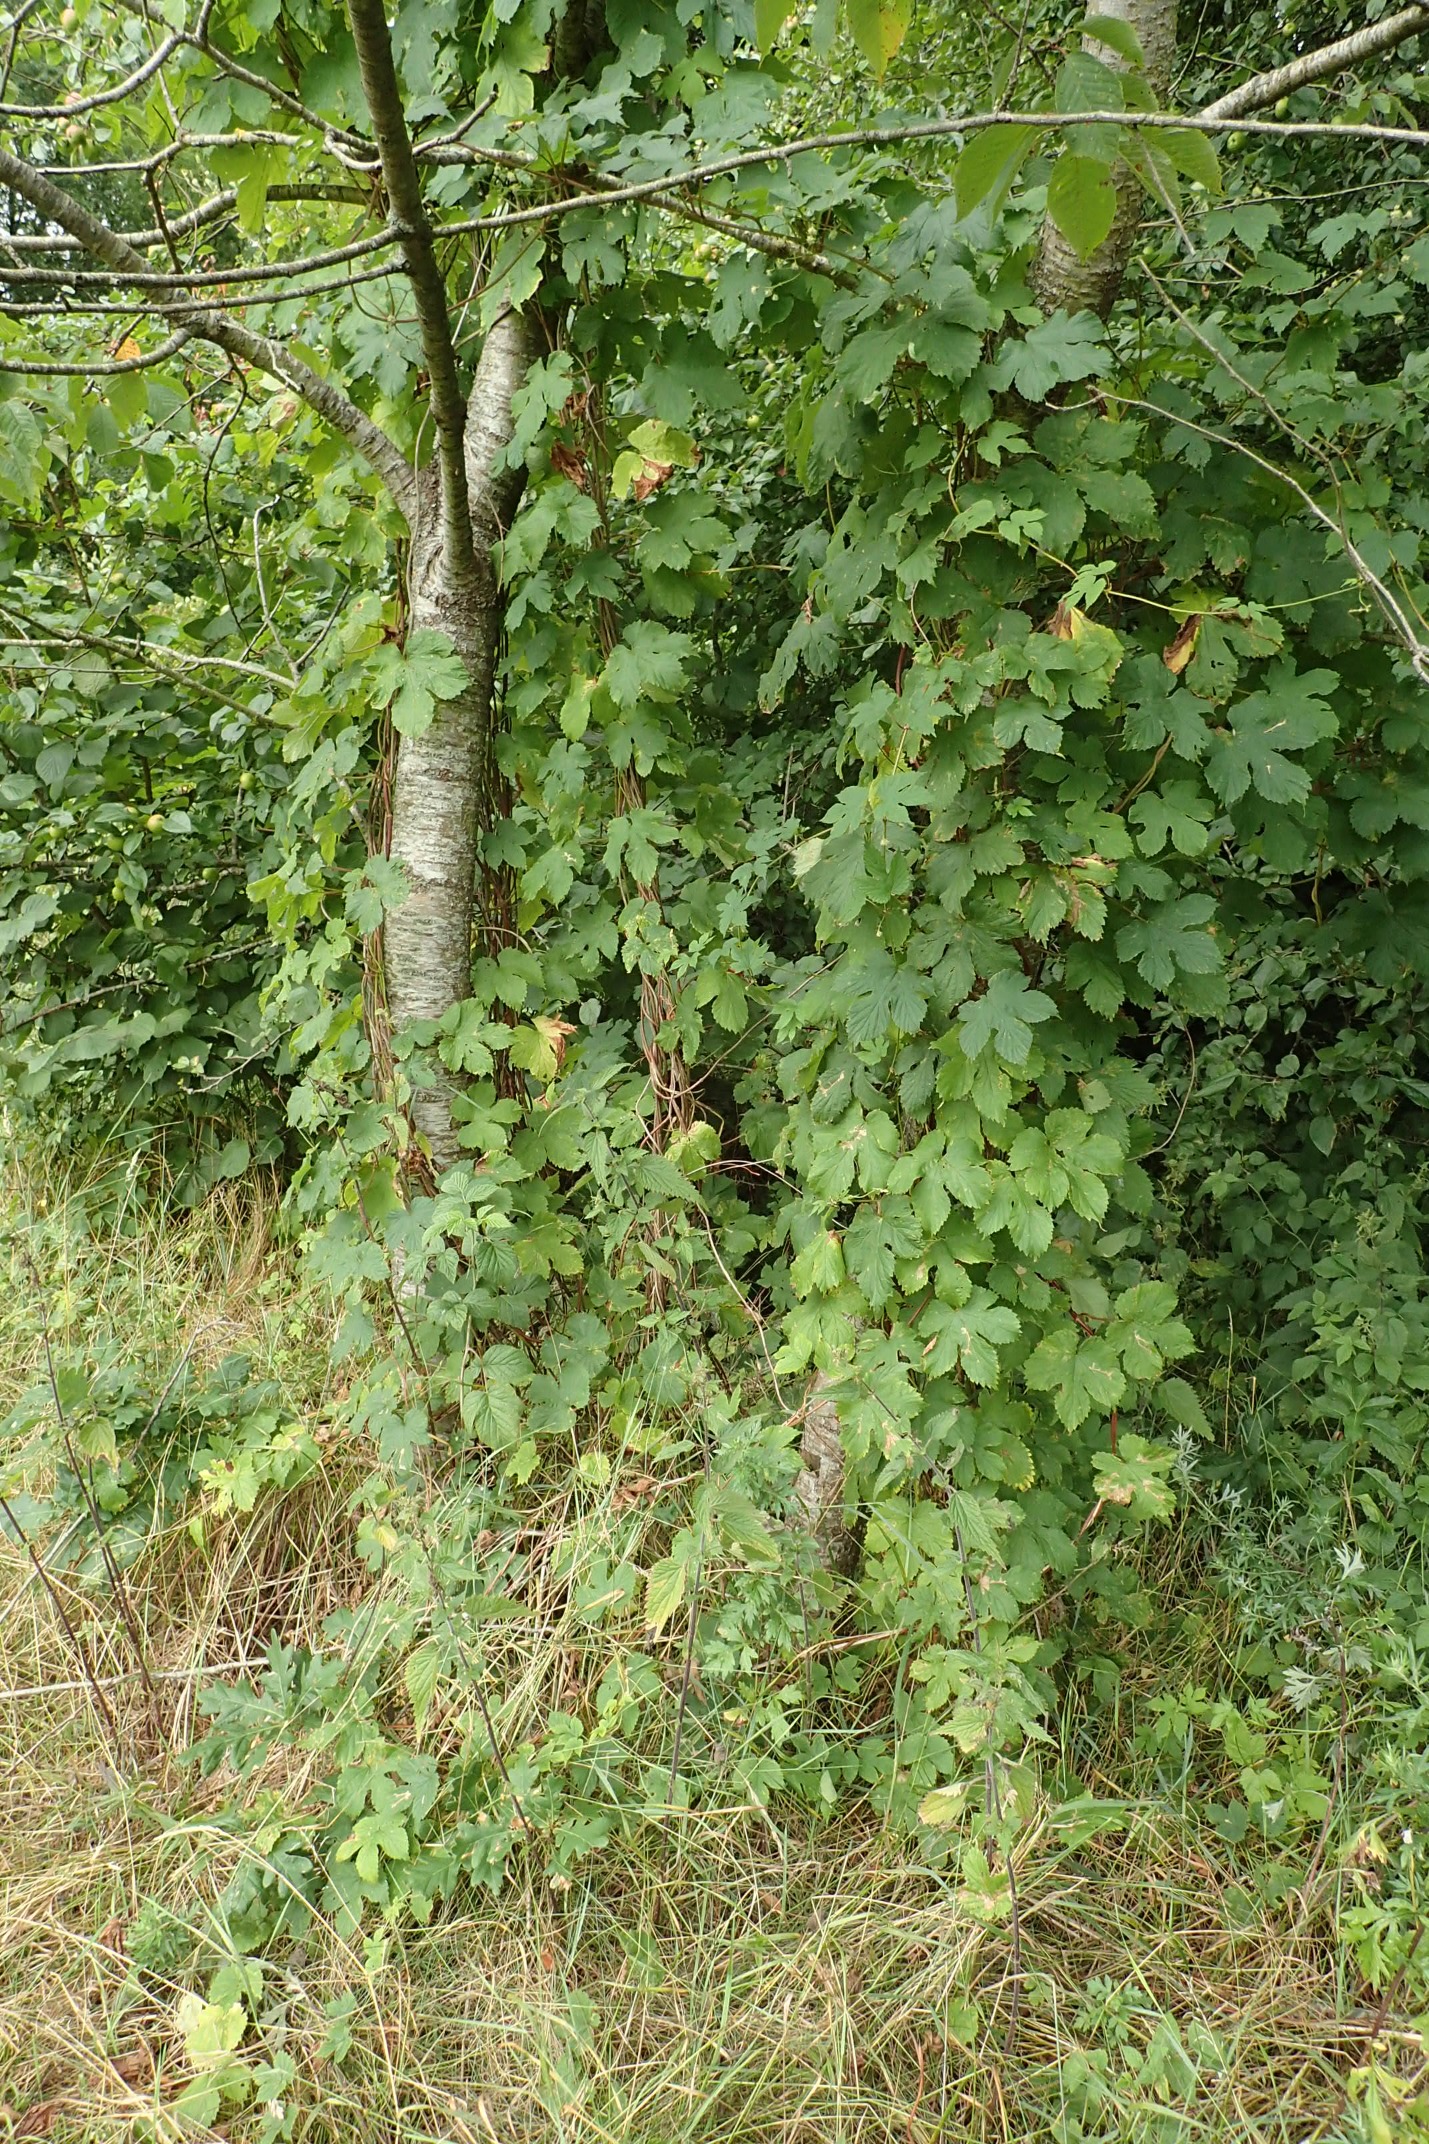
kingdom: Plantae
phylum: Tracheophyta
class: Magnoliopsida
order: Rosales
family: Cannabaceae
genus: Humulus
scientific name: Humulus lupulus
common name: Humle
